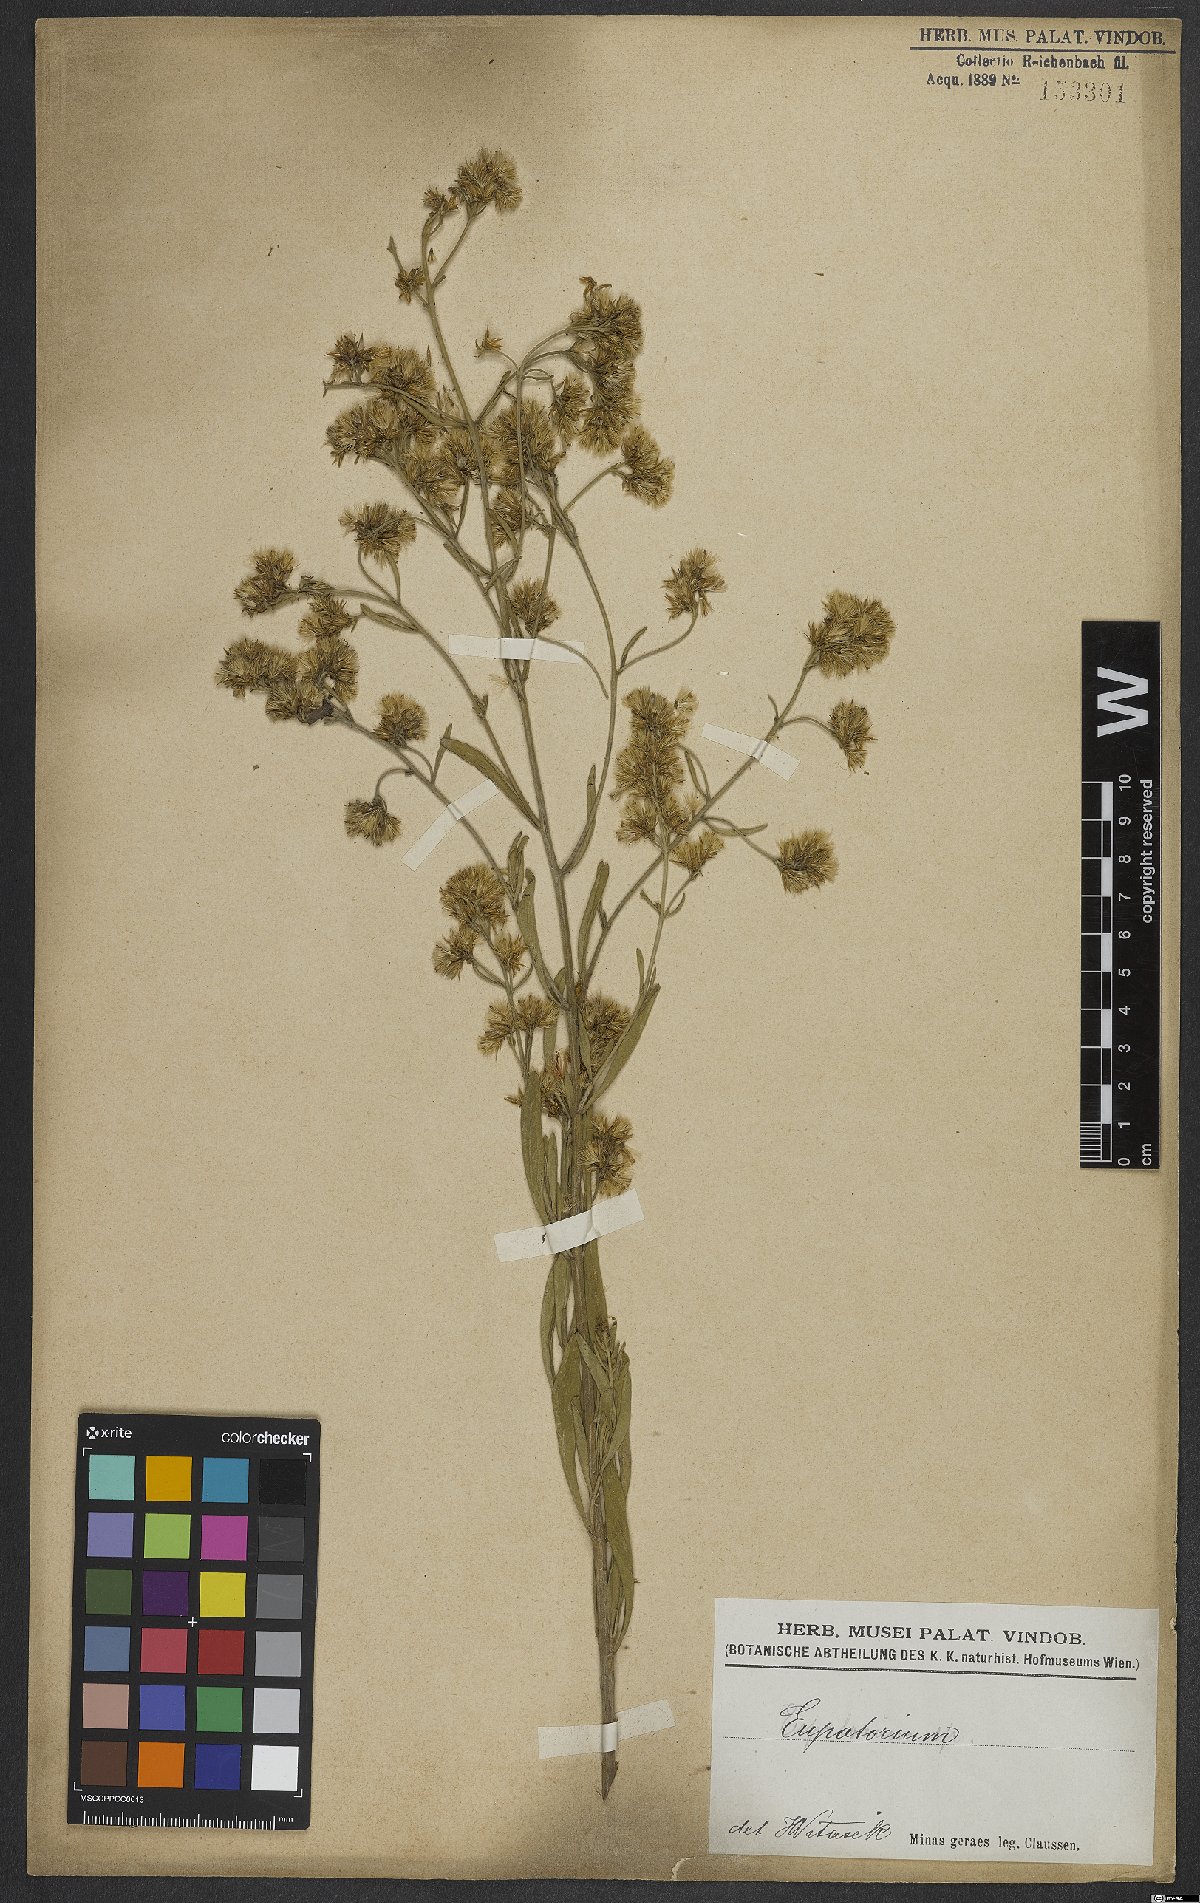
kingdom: Plantae
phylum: Tracheophyta
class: Magnoliopsida
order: Asterales
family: Asteraceae
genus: Eupatorium
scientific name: Eupatorium
